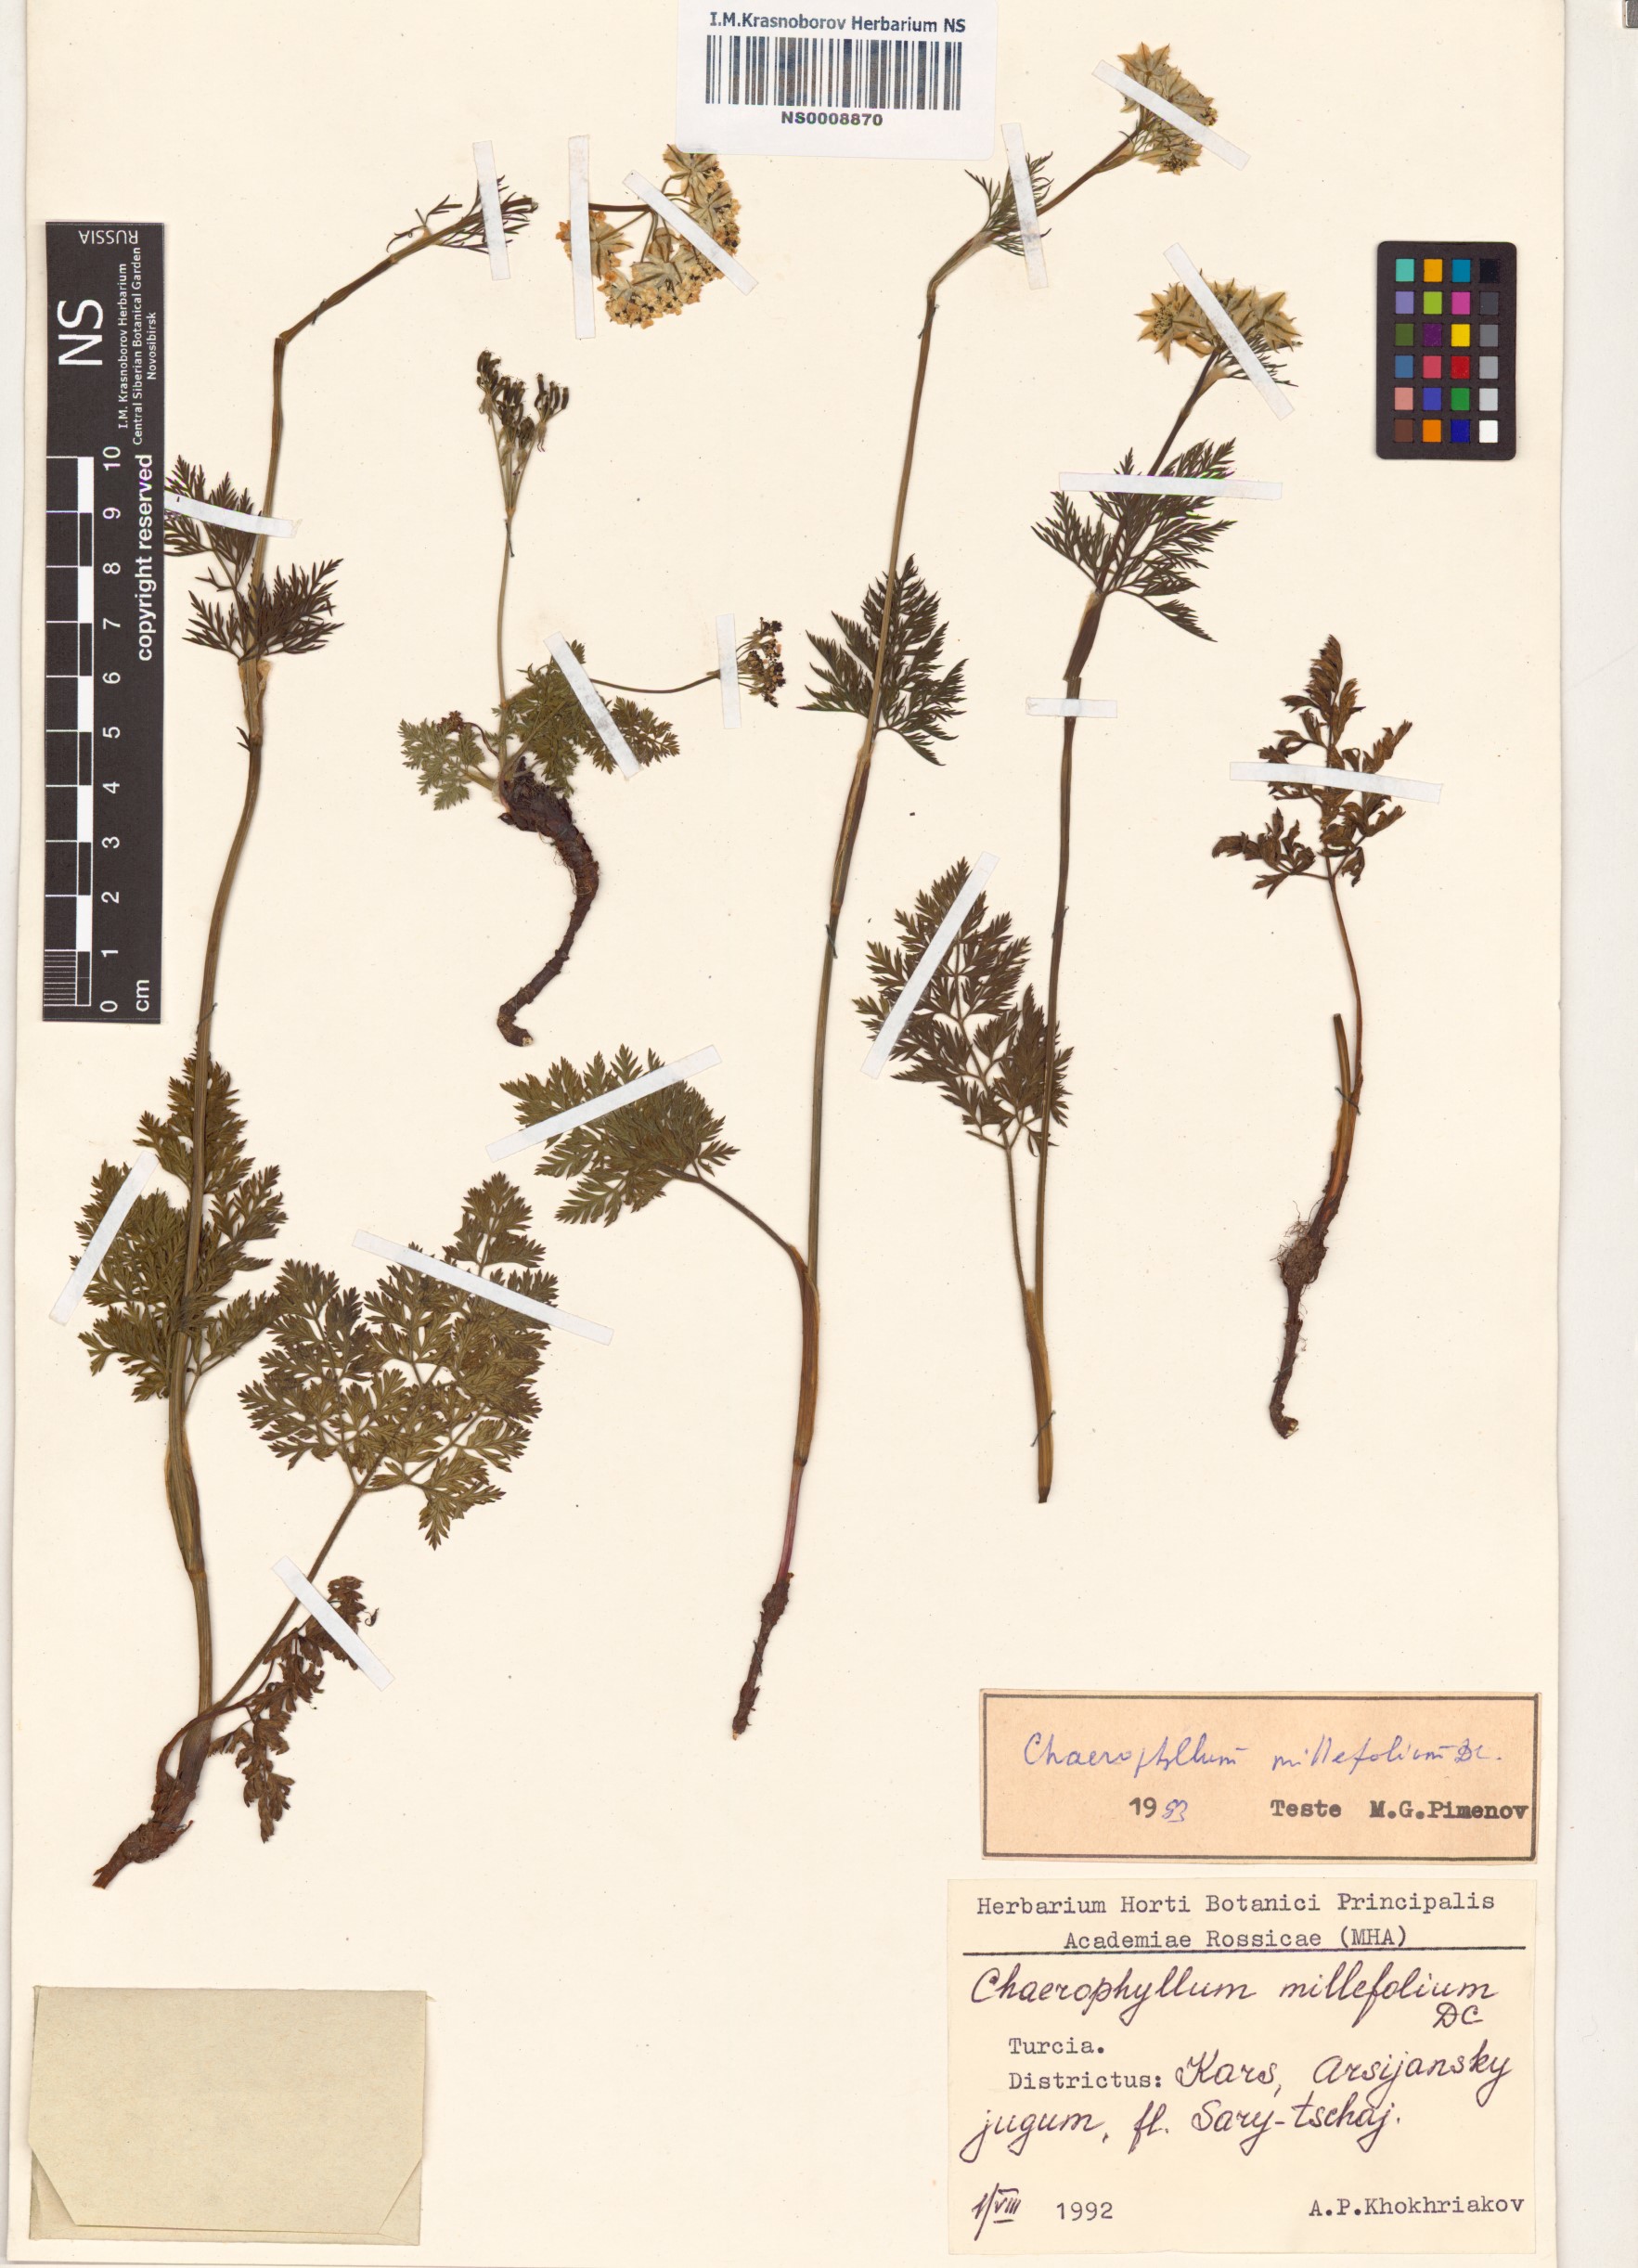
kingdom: Plantae
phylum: Tracheophyta
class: Magnoliopsida
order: Apiales
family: Apiaceae
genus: Chaerophyllum
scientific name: Chaerophyllum roseum
